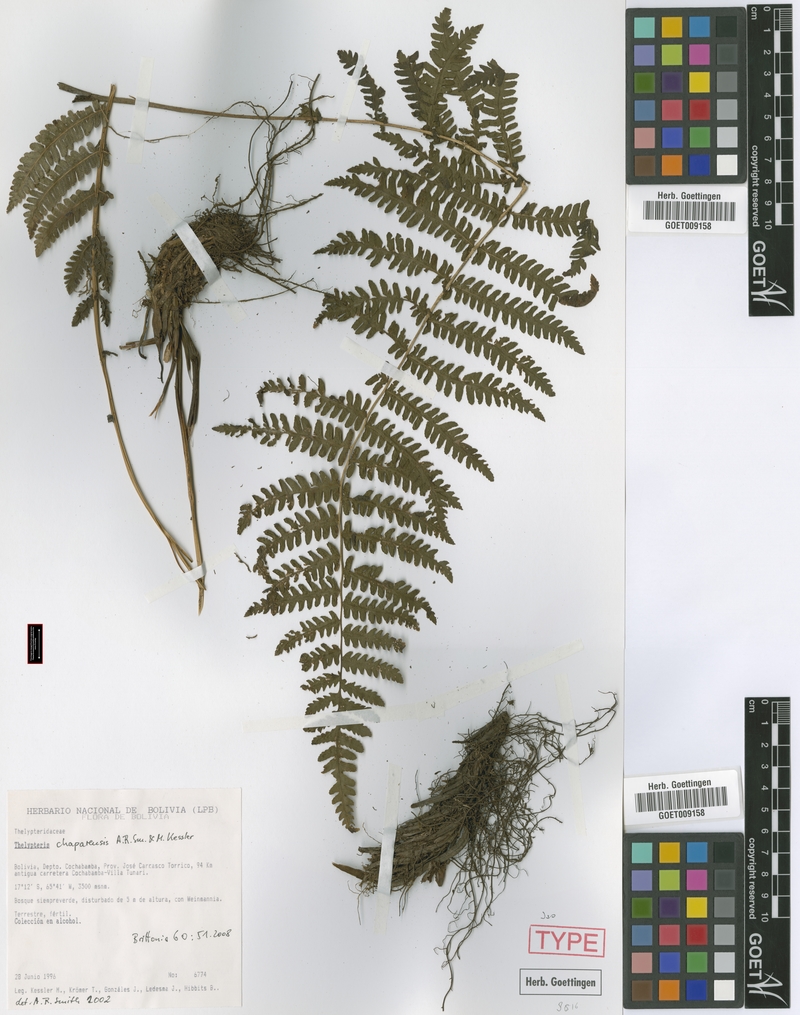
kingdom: Plantae
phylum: Tracheophyta
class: Polypodiopsida
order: Polypodiales
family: Thelypteridaceae
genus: Amauropelta
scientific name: Amauropelta chaparensis
